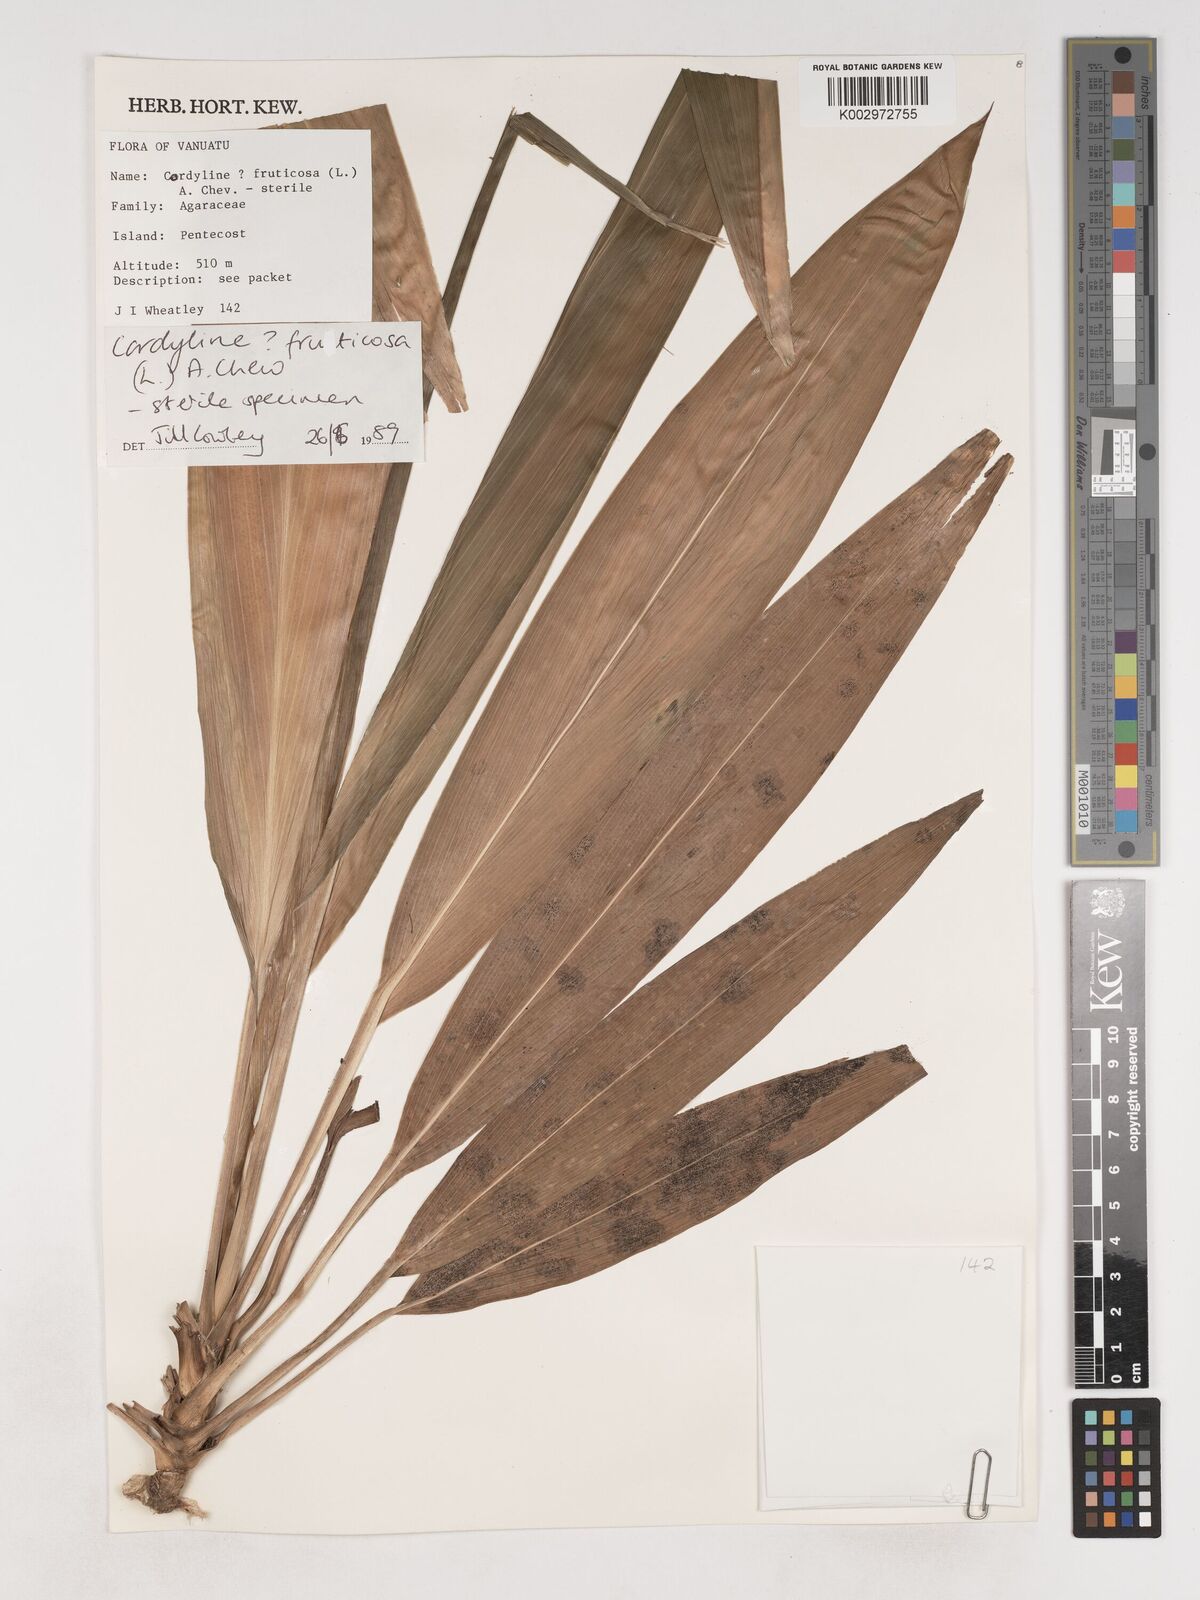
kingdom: Plantae
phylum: Tracheophyta
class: Liliopsida
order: Asparagales
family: Asparagaceae
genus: Cordyline
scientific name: Cordyline fruticosa
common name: Good-luck-plant
